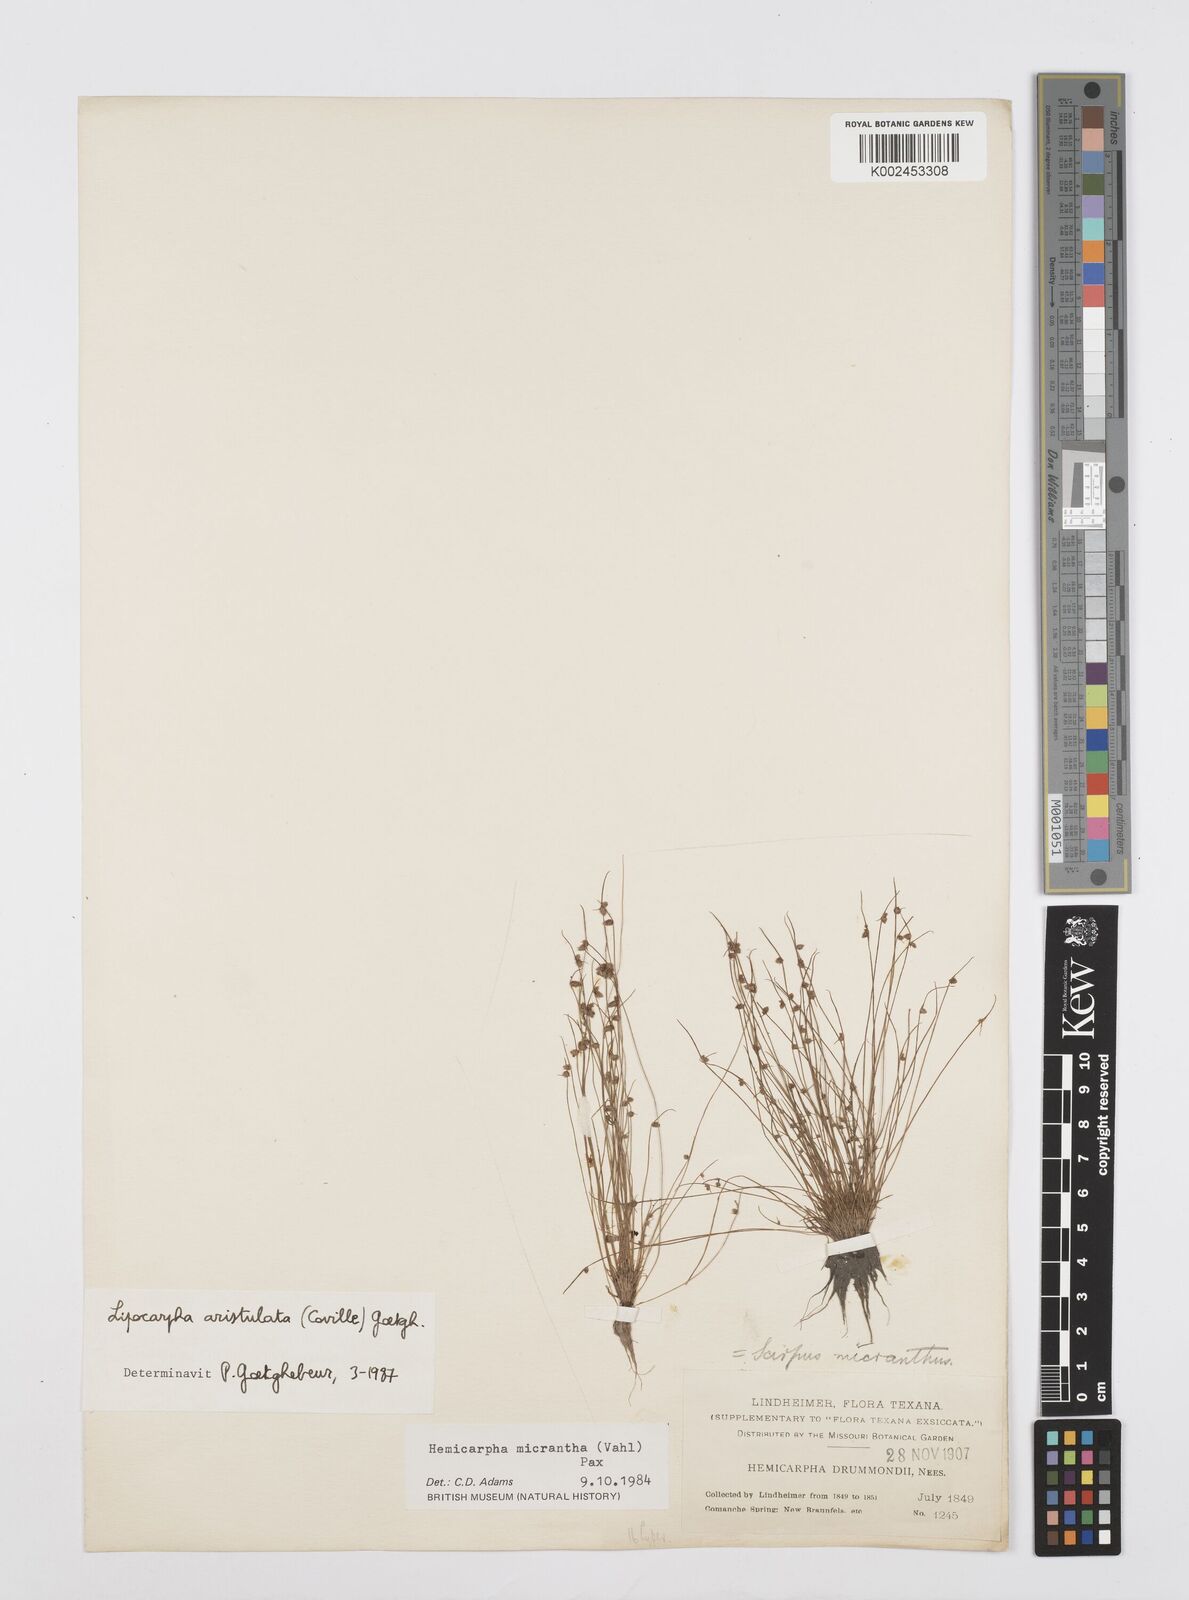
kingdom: Plantae
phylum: Tracheophyta
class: Liliopsida
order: Poales
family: Cyperaceae
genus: Cyperus
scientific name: Cyperus aristulatus
